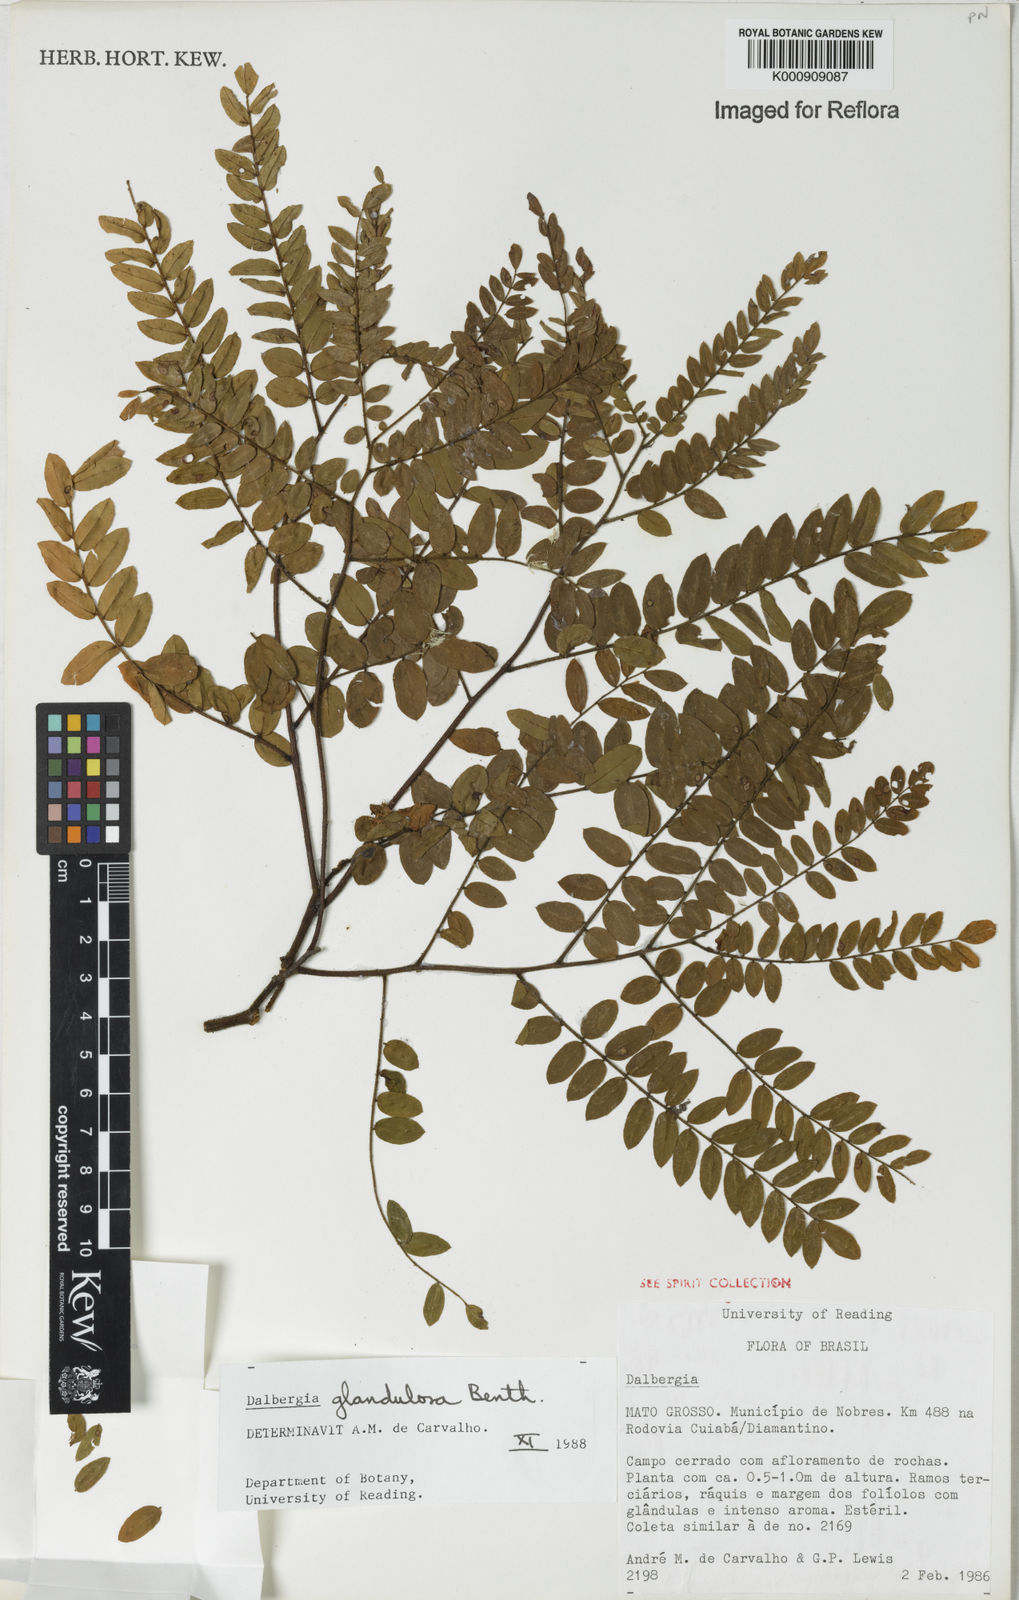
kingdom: Plantae
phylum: Tracheophyta
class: Magnoliopsida
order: Fabales
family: Fabaceae
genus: Dalbergia
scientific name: Dalbergia glandulosa
